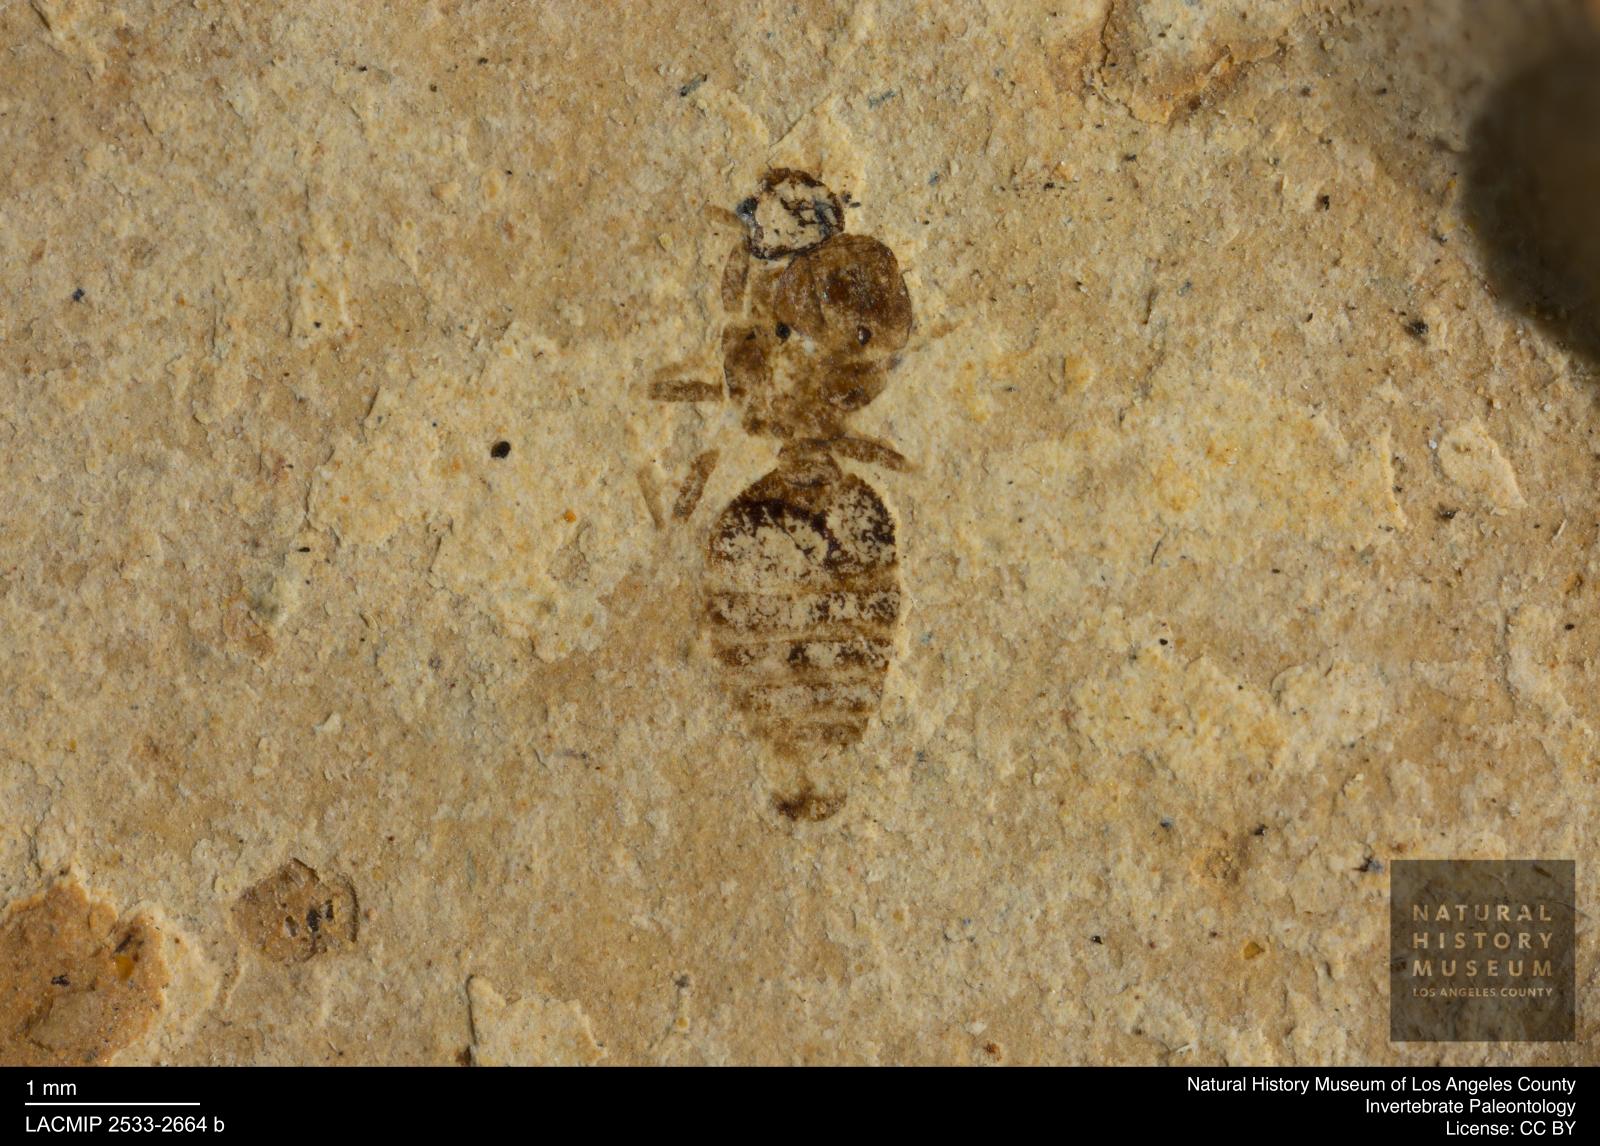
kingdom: Animalia
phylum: Arthropoda
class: Insecta
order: Hymenoptera
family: Formicidae
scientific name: Formicidae
